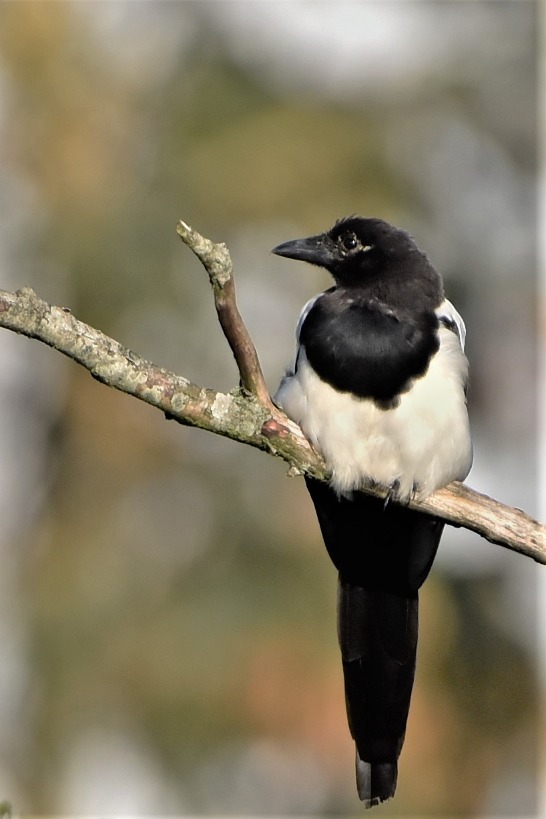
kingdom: Animalia
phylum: Chordata
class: Aves
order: Passeriformes
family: Corvidae
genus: Pica
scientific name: Pica pica
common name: Husskade
